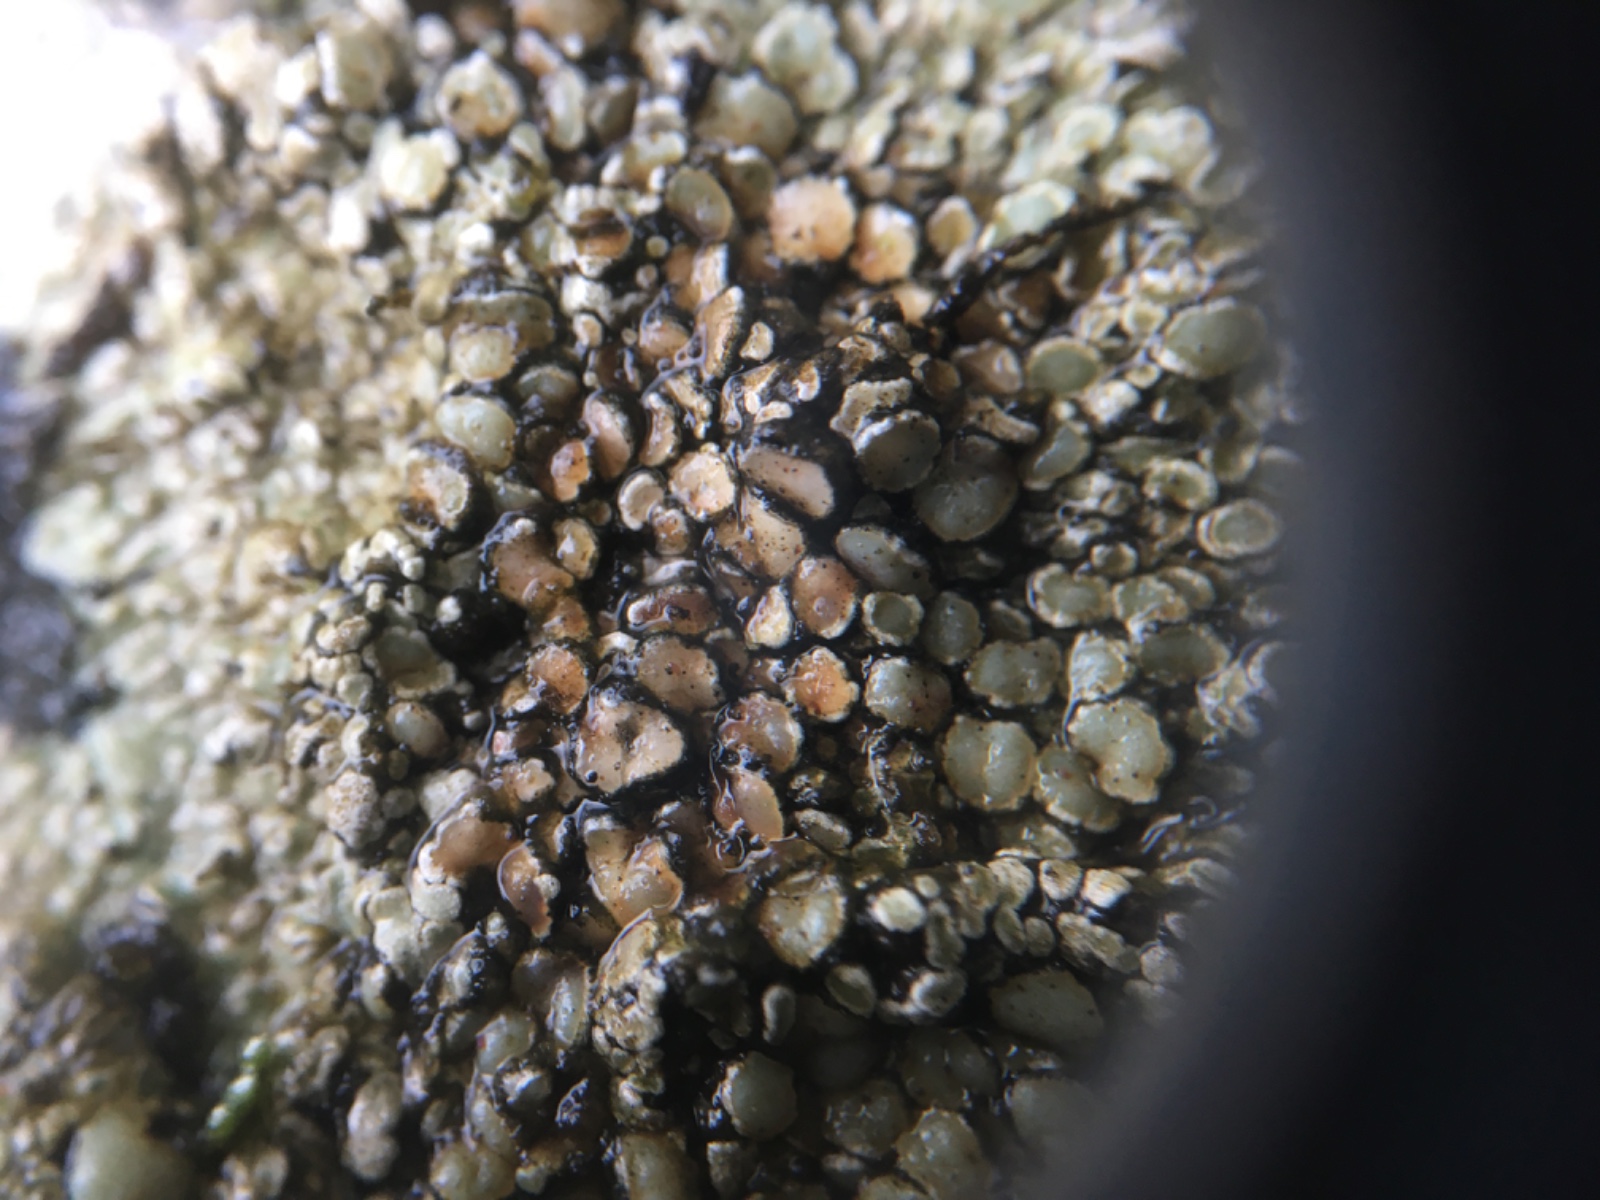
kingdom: Fungi
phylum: Ascomycota
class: Lecanoromycetes
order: Lecanorales
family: Lecanoraceae
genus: Protoparmeliopsis
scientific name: Protoparmeliopsis muralis
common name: randfliget kantskivelav
